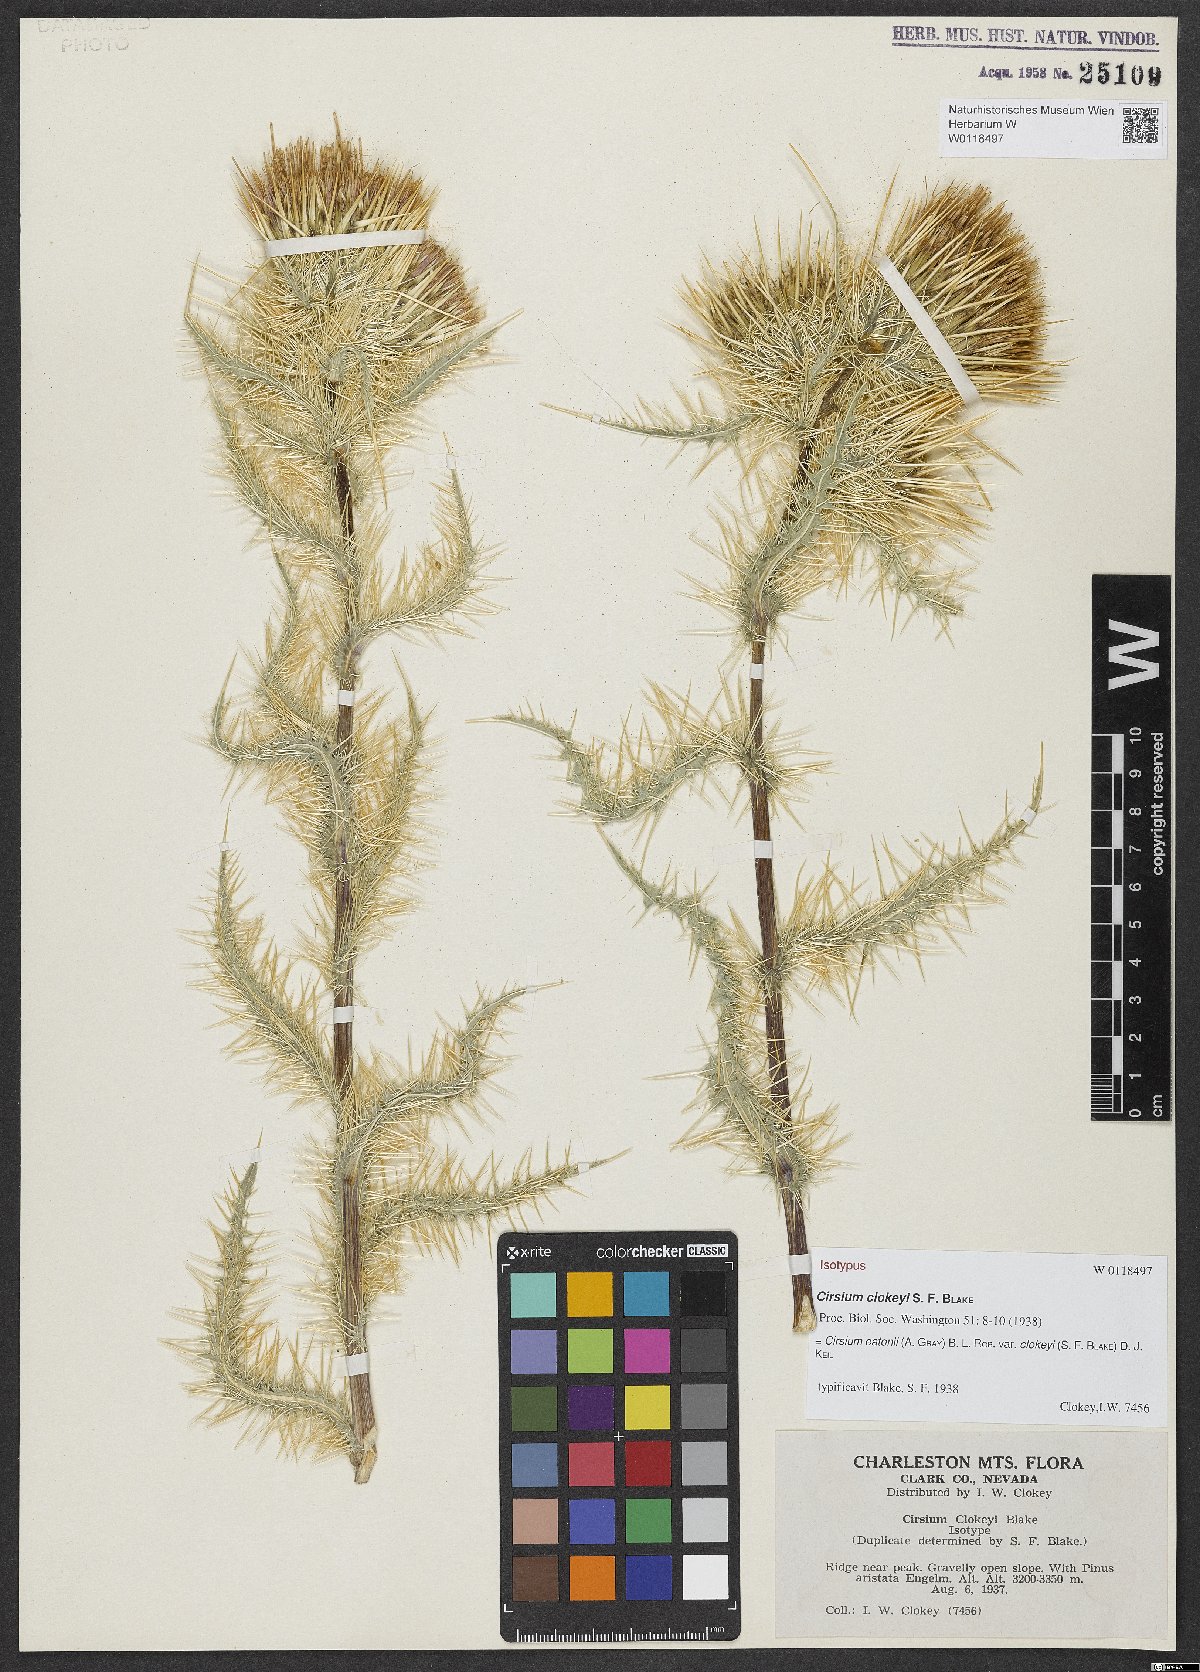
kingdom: Plantae
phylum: Tracheophyta
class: Magnoliopsida
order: Asterales
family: Asteraceae
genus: Cirsium
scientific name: Cirsium eatonii
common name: Eaton's thistle
